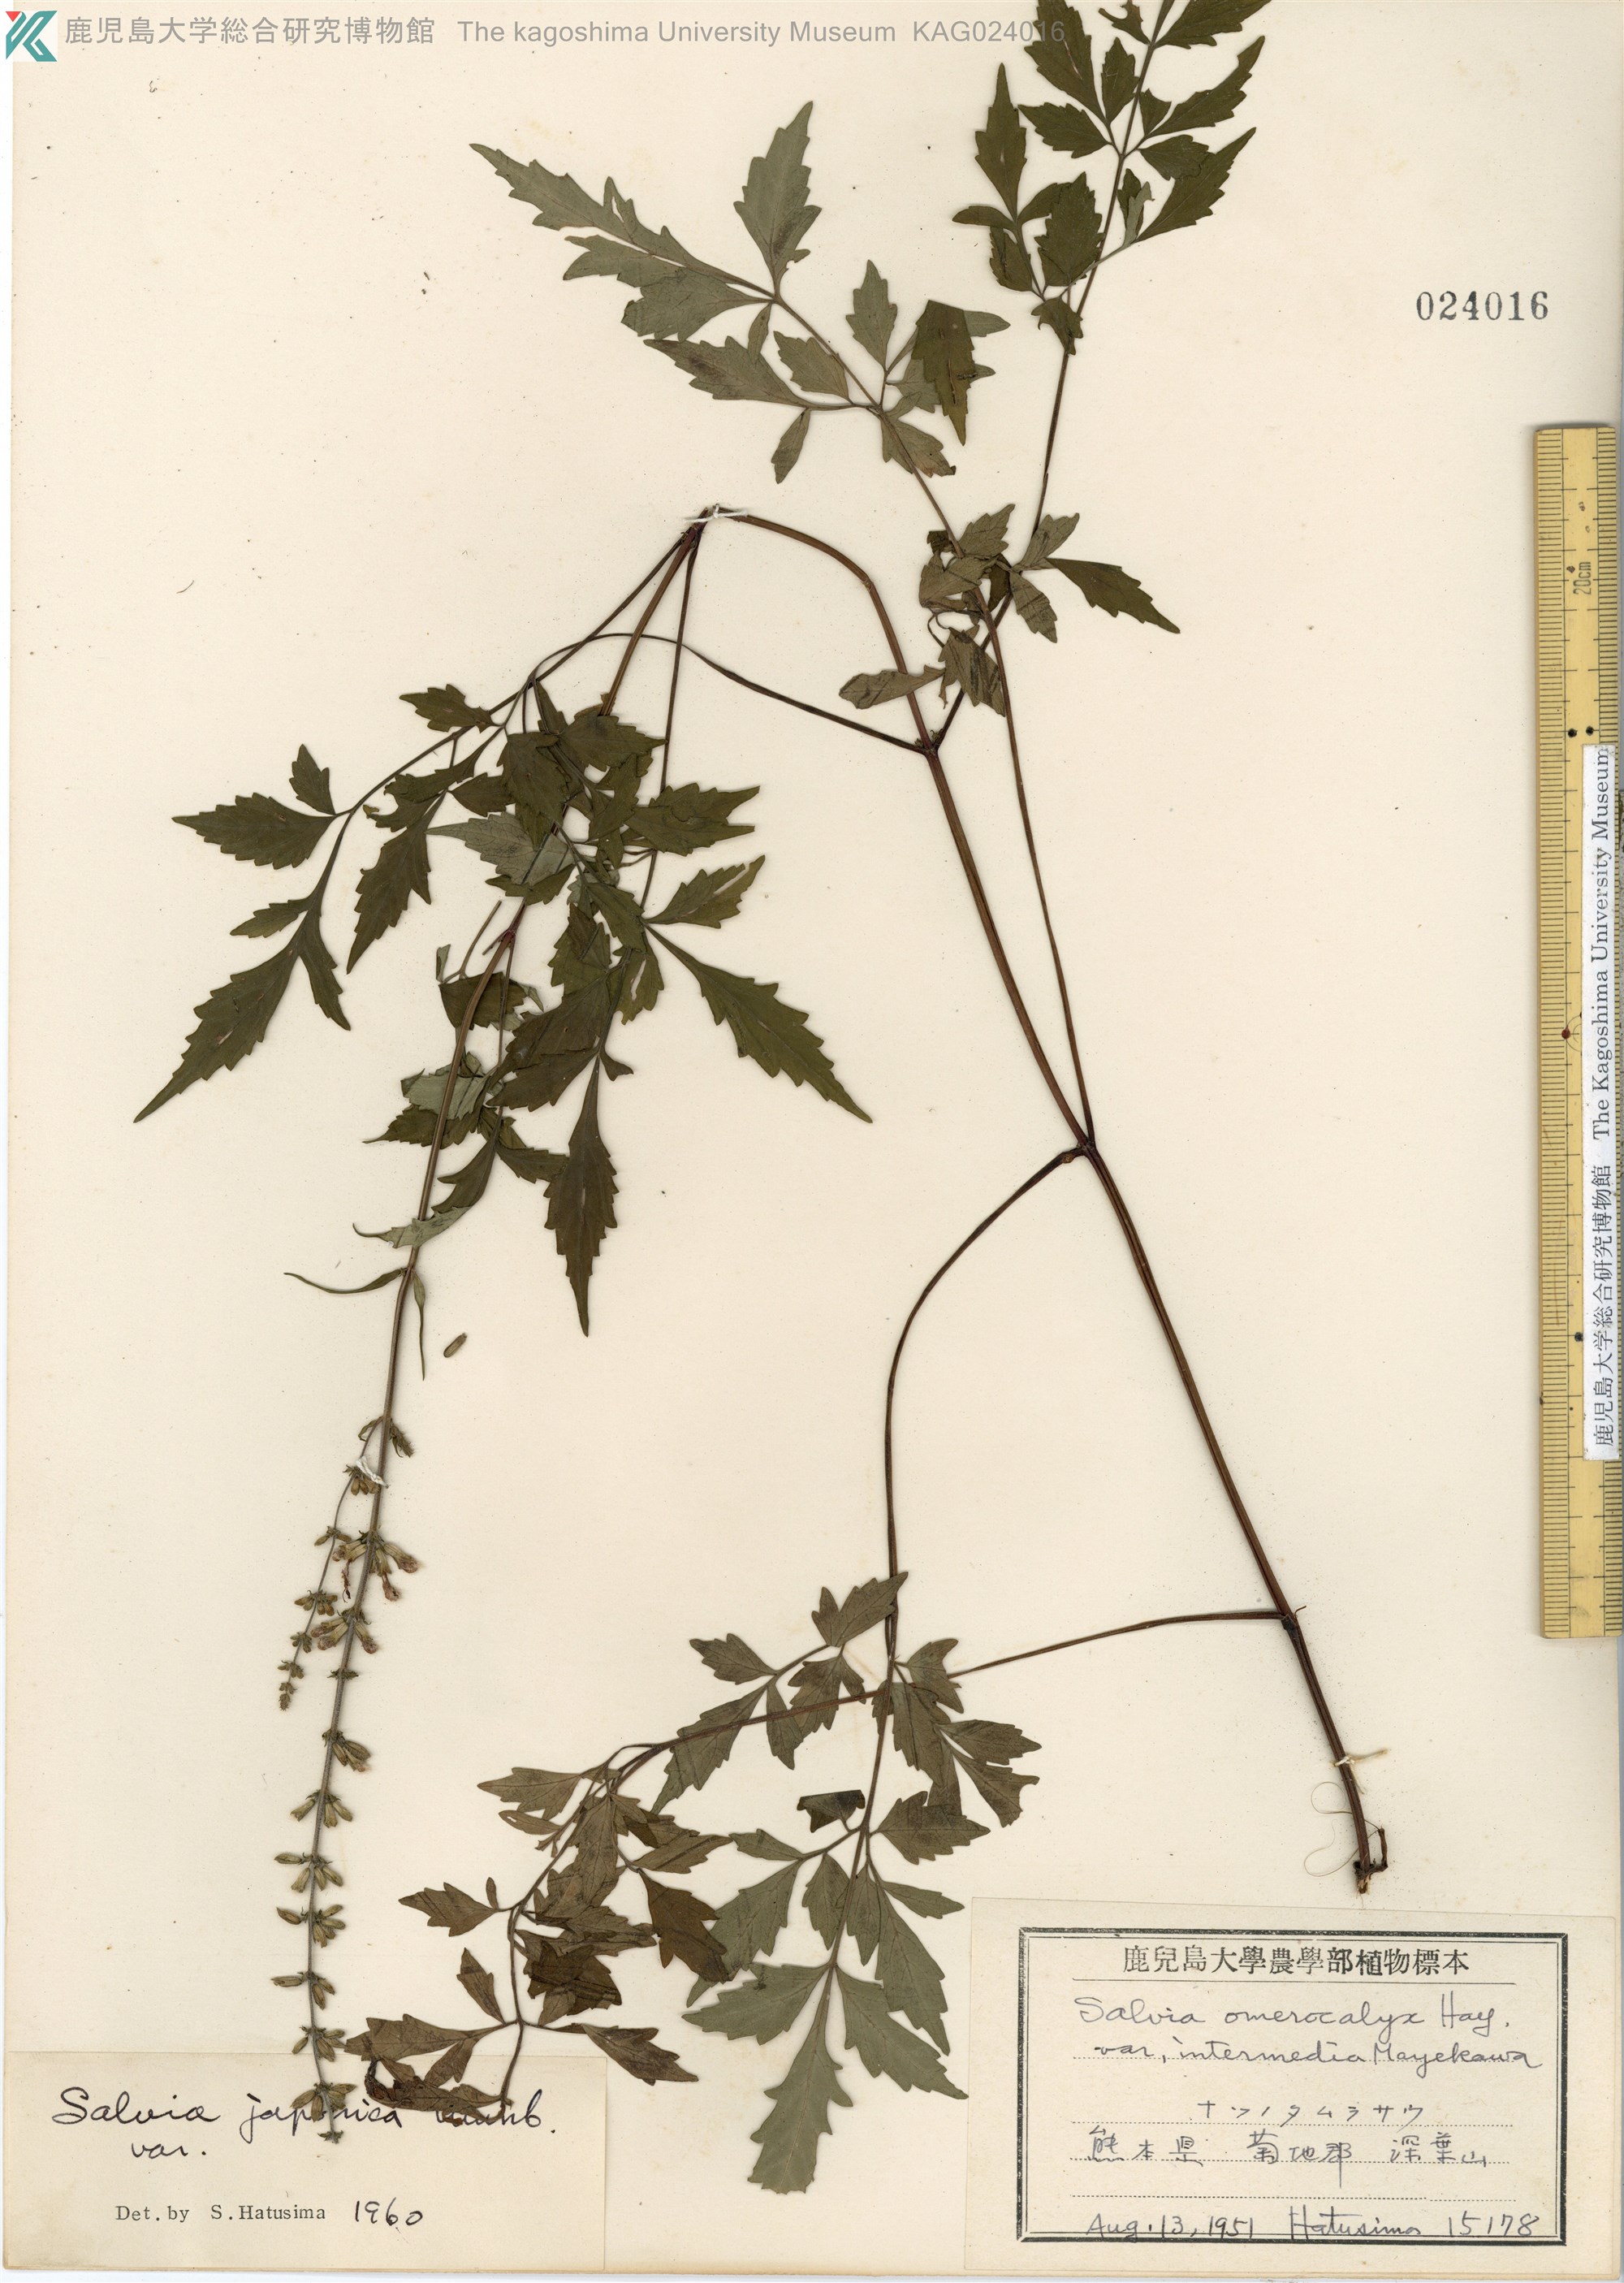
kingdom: Plantae
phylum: Tracheophyta
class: Magnoliopsida
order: Lamiales
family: Lamiaceae
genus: Salvia
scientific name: Salvia japonica
